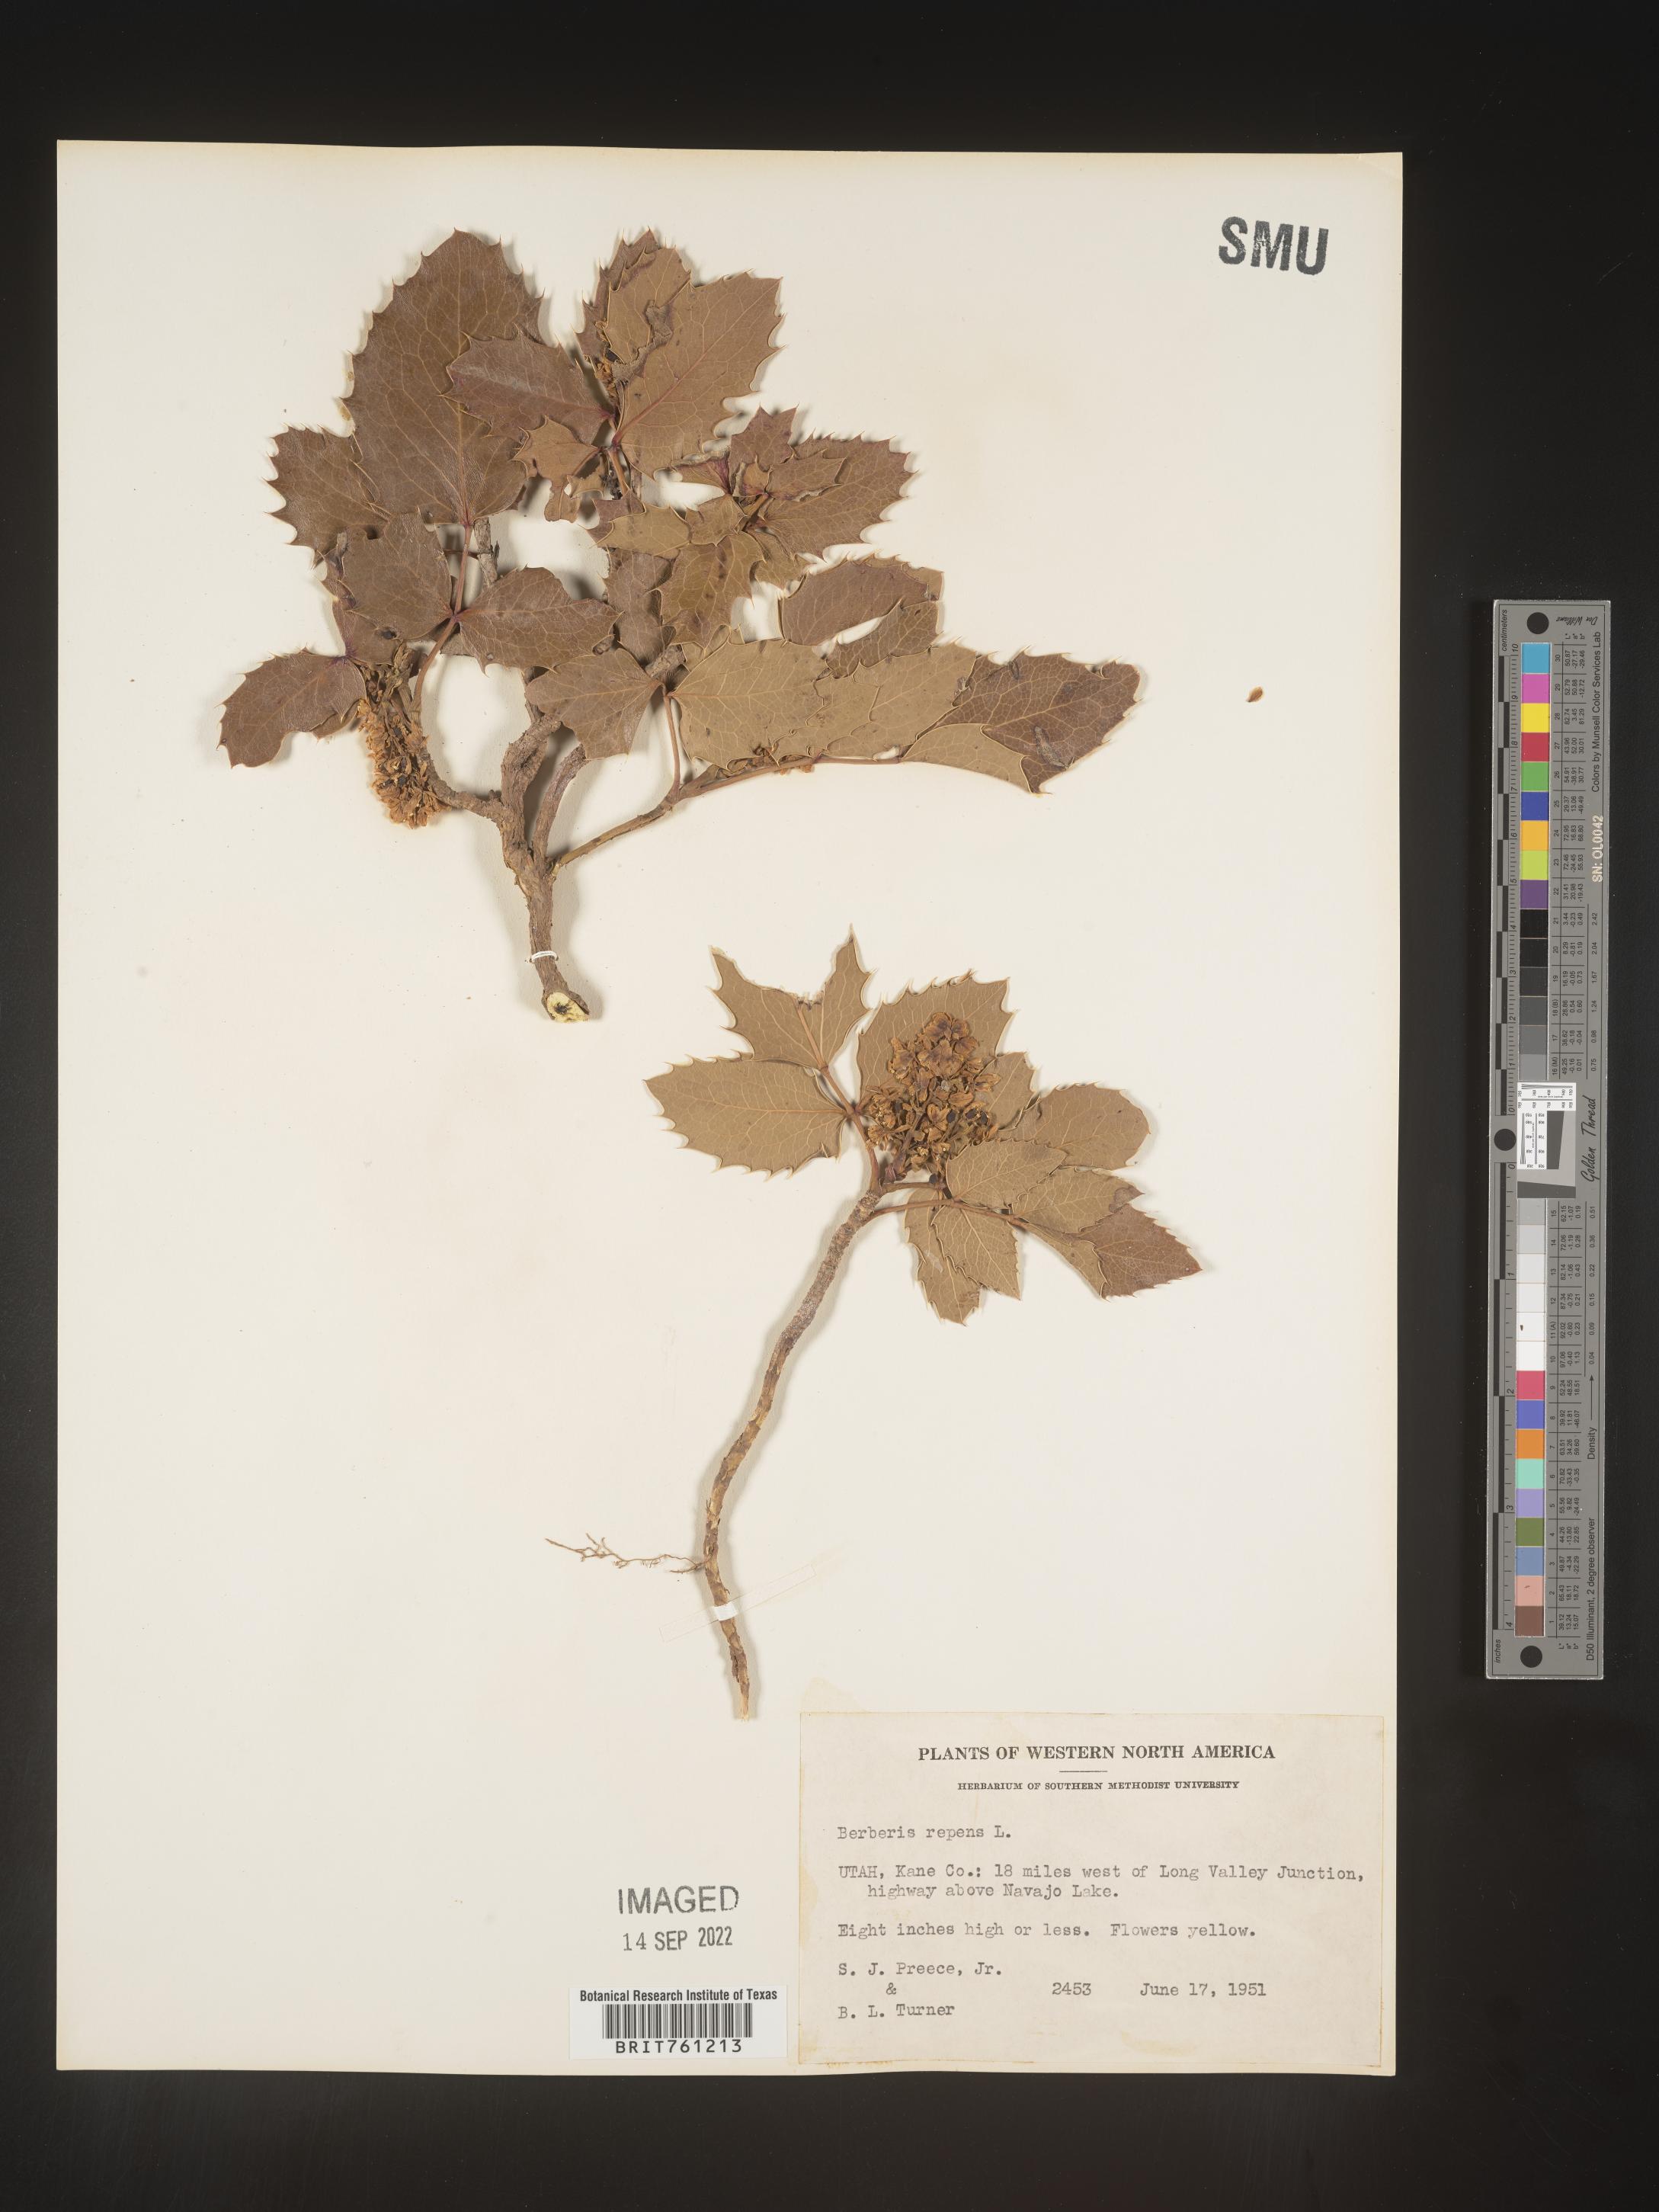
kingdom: Plantae
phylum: Tracheophyta
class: Magnoliopsida
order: Ranunculales
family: Berberidaceae
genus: Mahonia
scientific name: Mahonia repens
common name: Creeping oregon-grape
